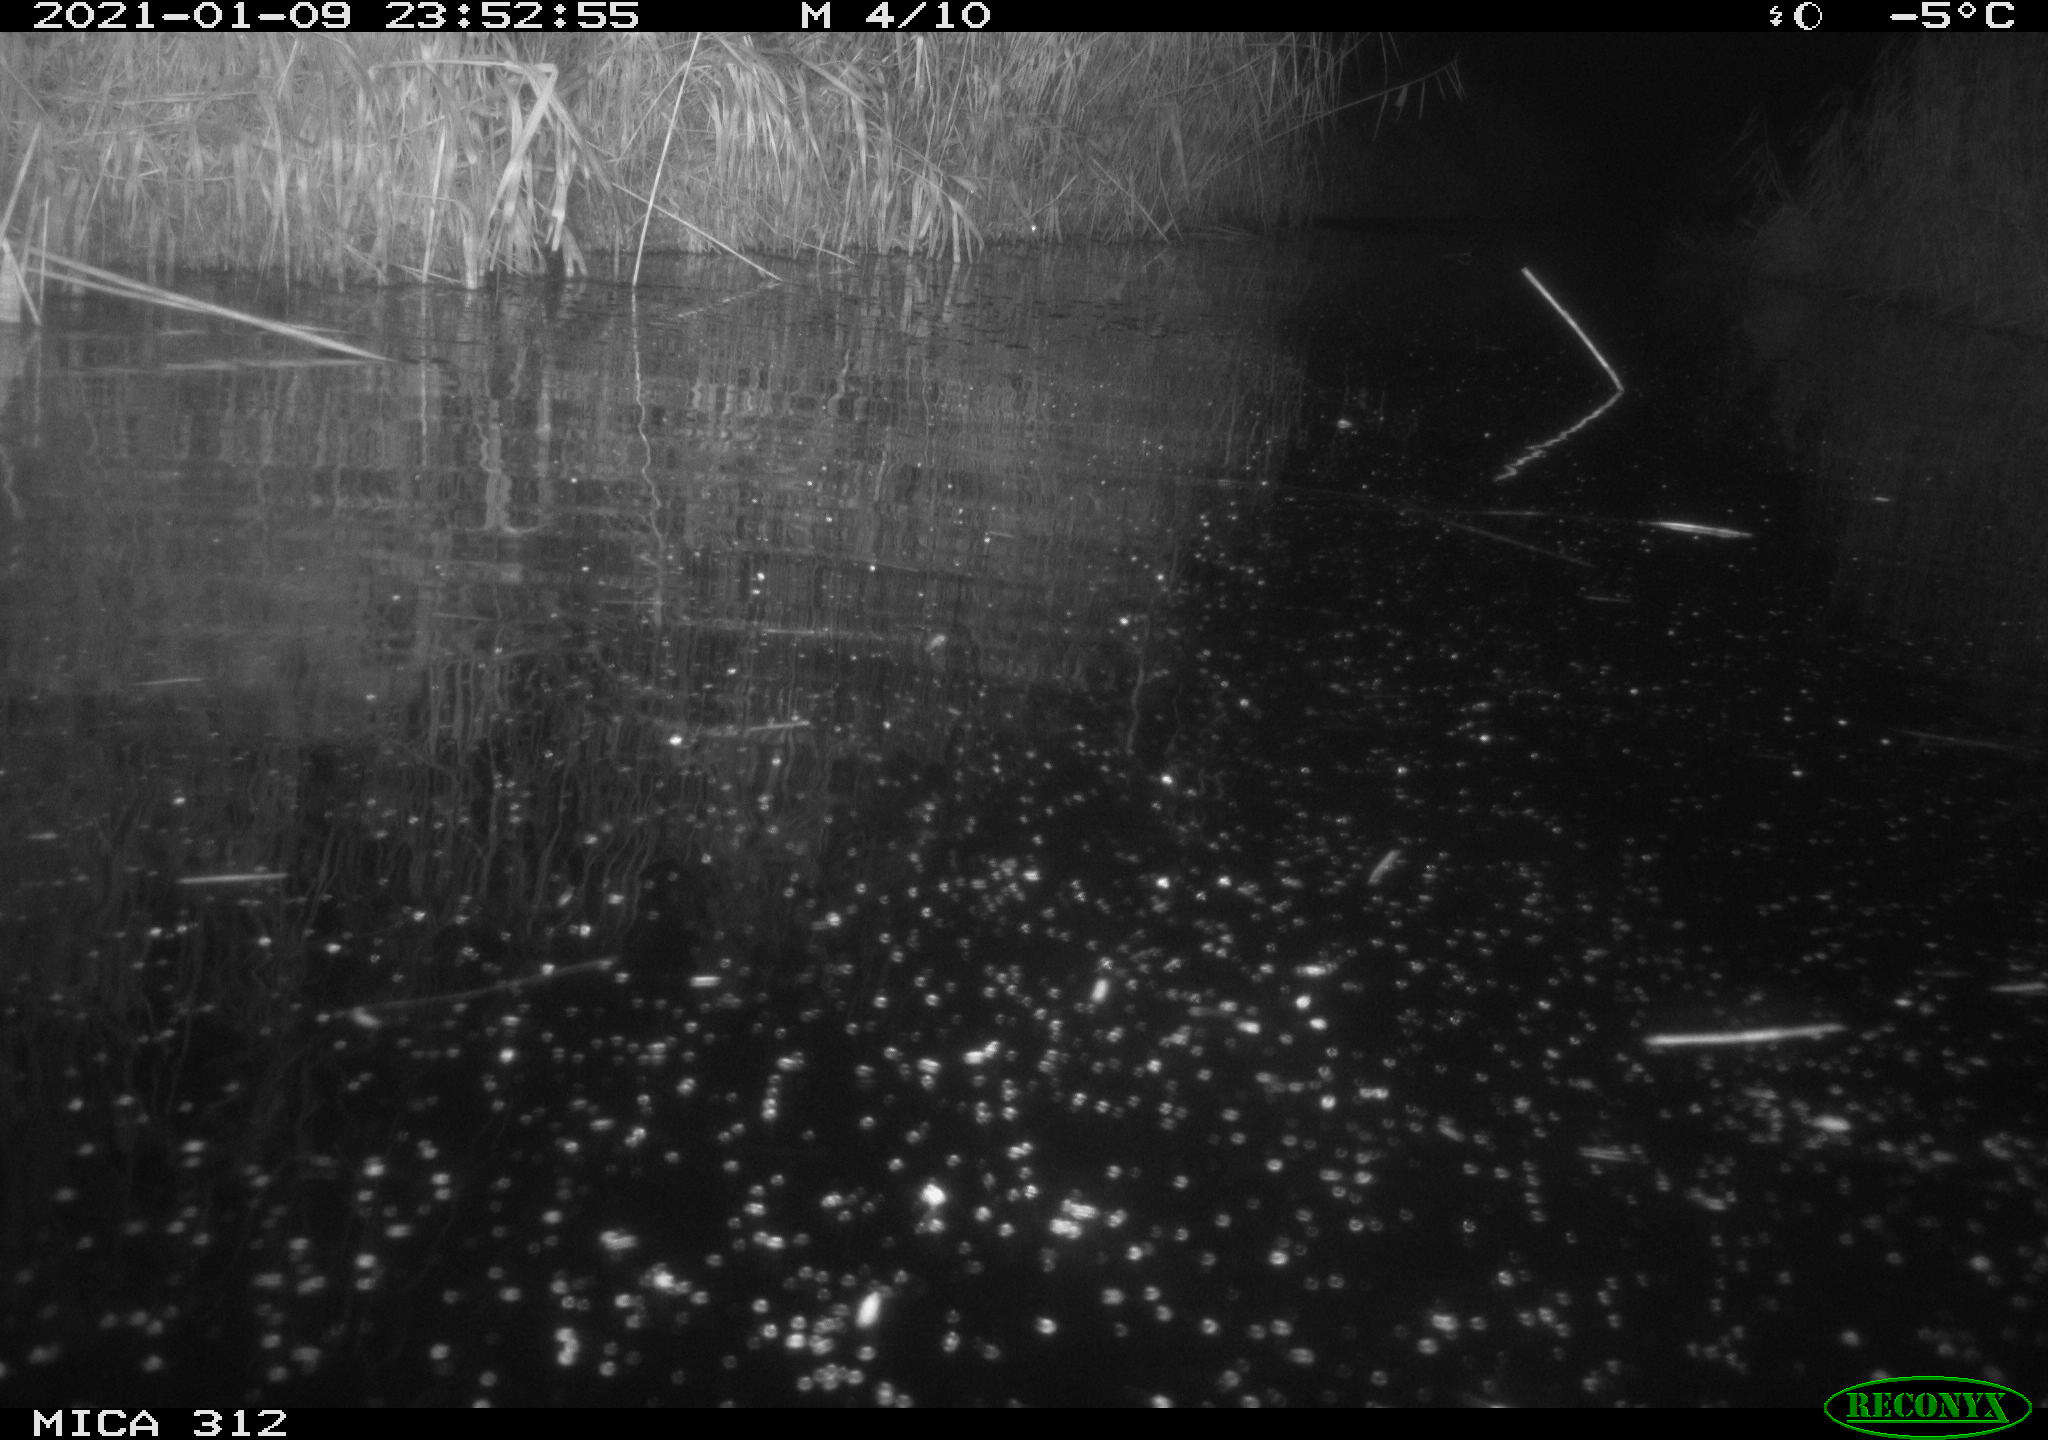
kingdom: Animalia
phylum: Chordata
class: Mammalia
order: Rodentia
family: Muridae
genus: Rattus
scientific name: Rattus norvegicus
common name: Brown rat
